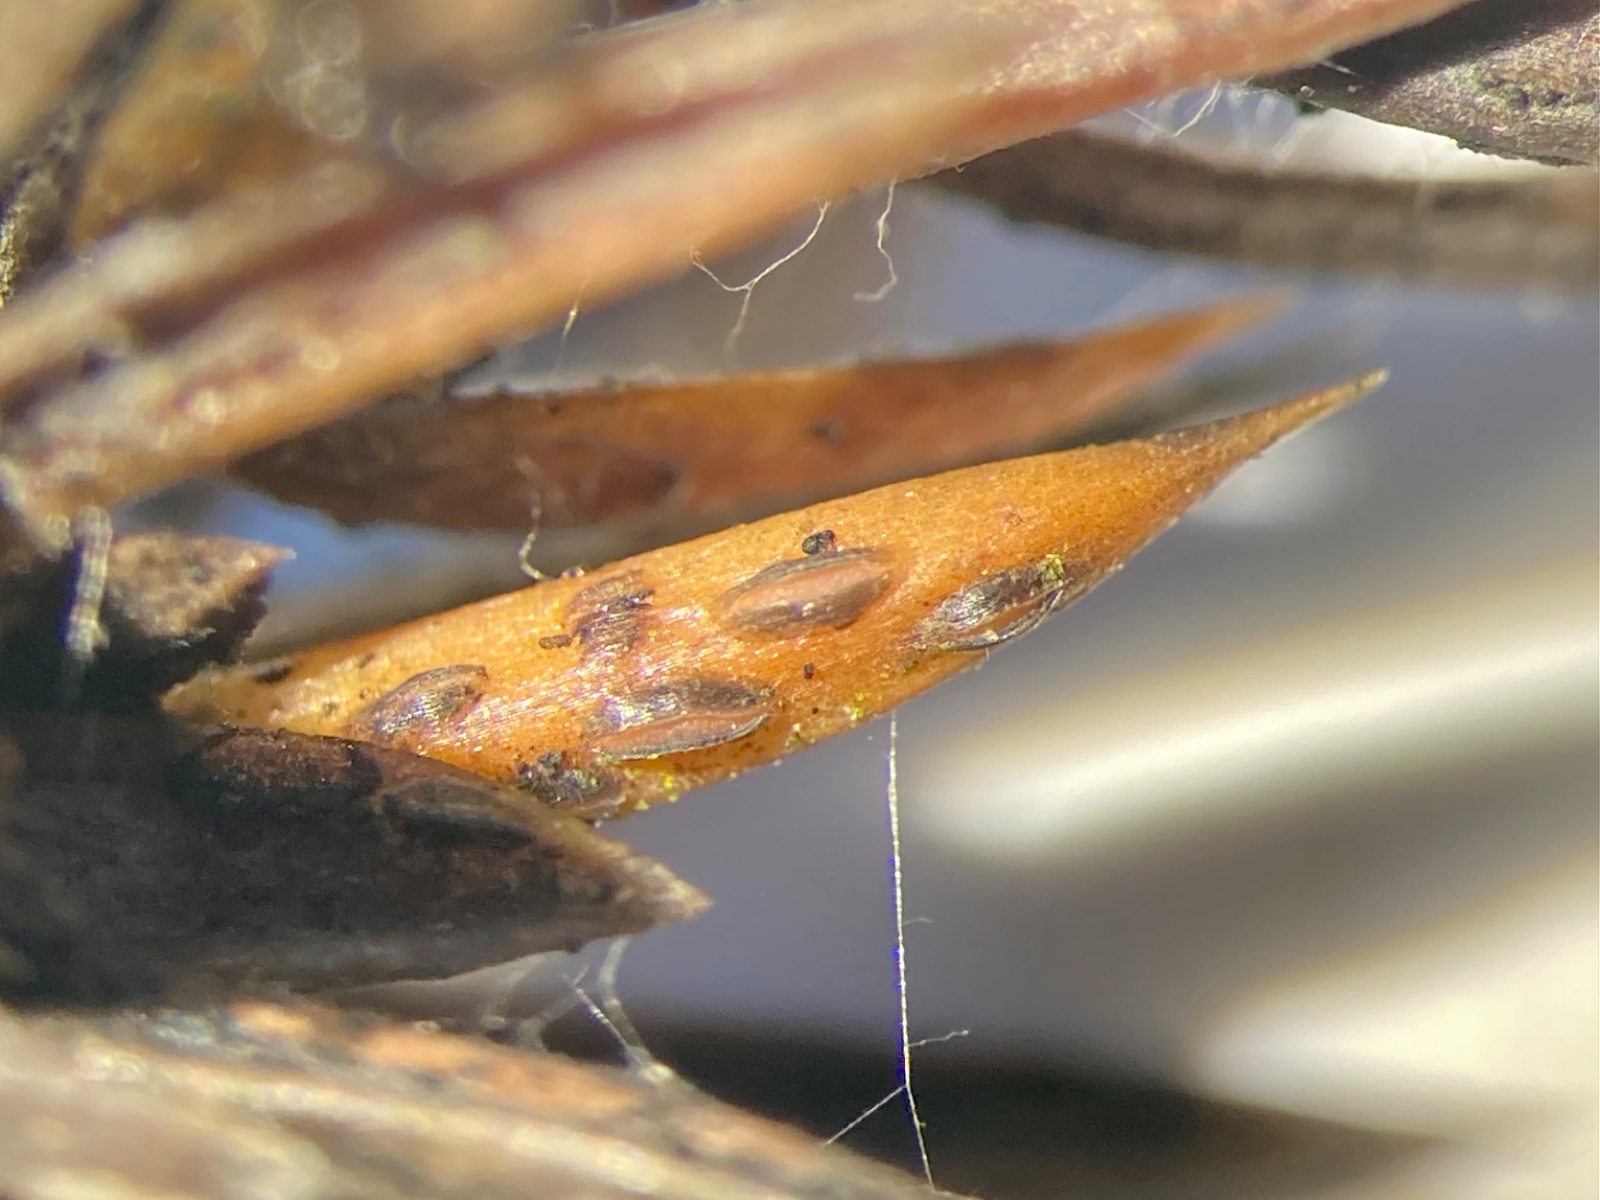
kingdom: Fungi
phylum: Ascomycota
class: Leotiomycetes
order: Rhytismatales
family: Rhytismataceae
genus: Lophodermium
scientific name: Lophodermium juniperinum
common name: ene-fureplet
